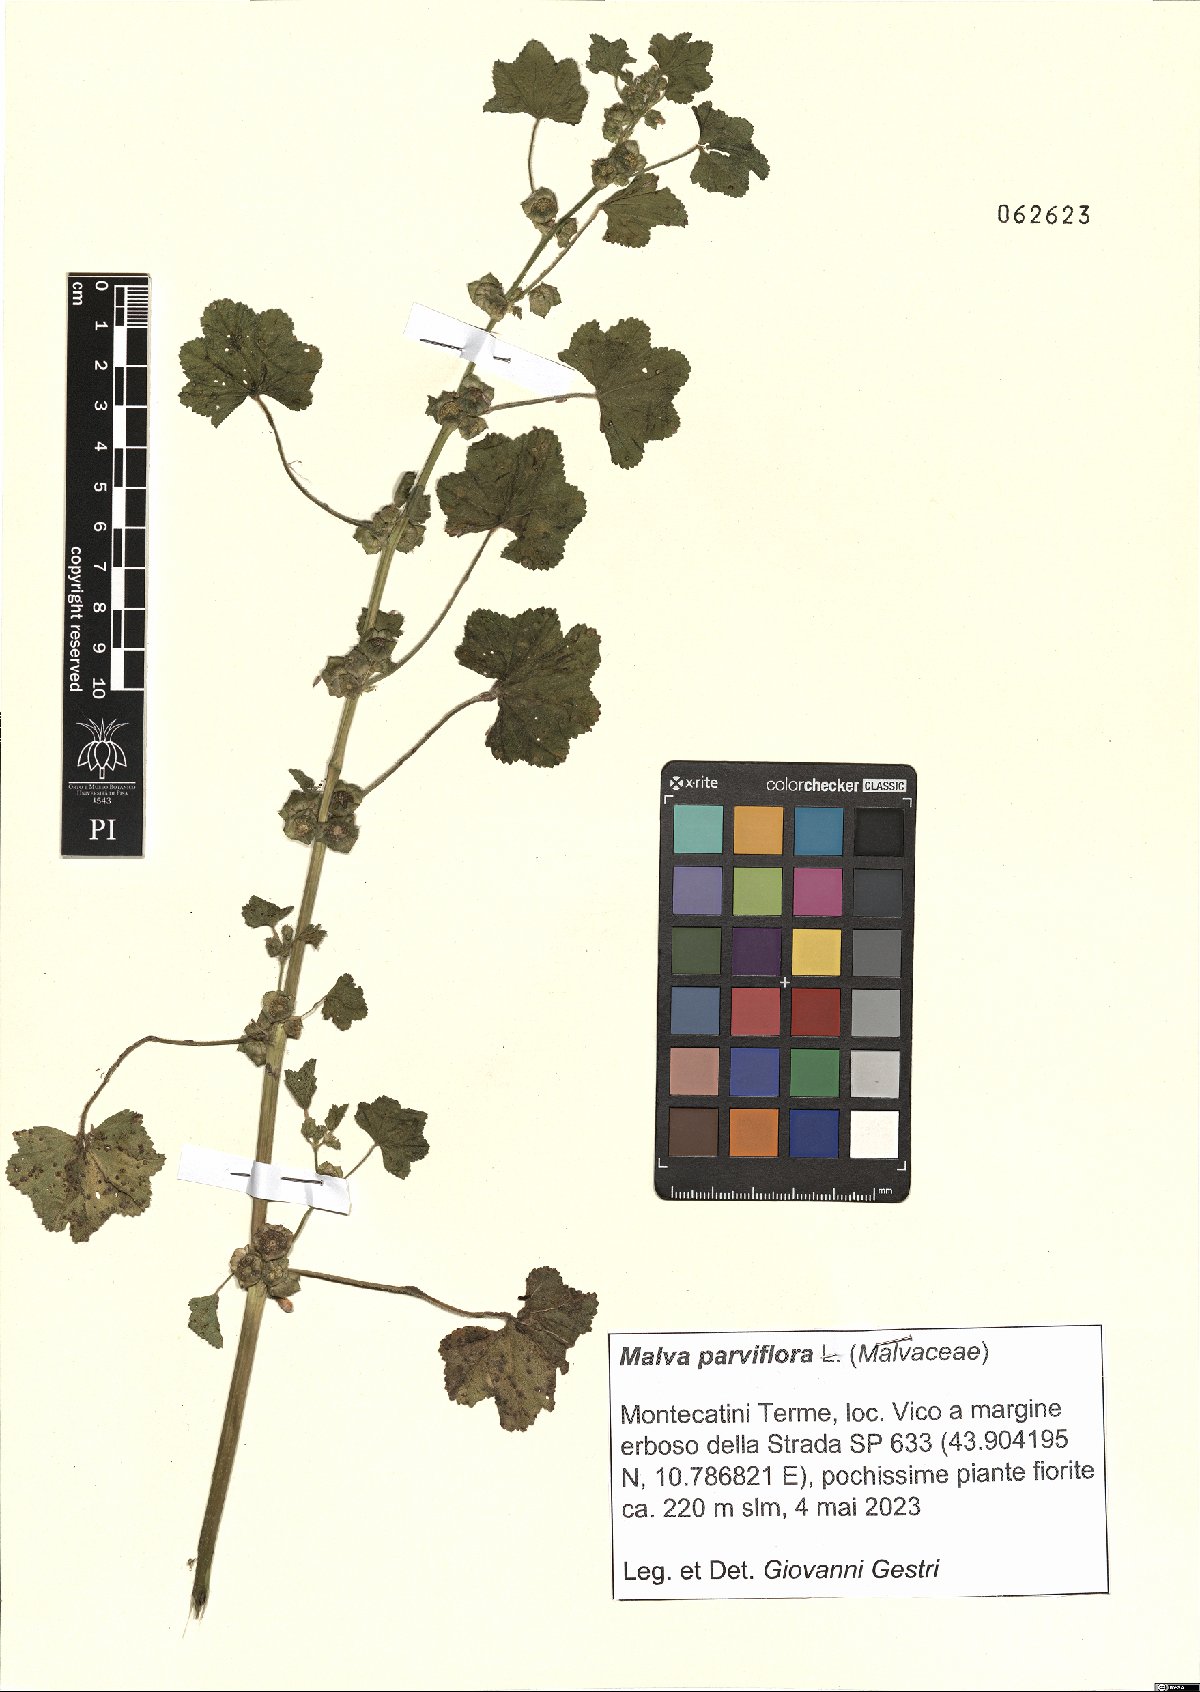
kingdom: Plantae
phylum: Tracheophyta
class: Magnoliopsida
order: Malvales
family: Malvaceae
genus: Malva
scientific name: Malva parviflora
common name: Least mallow
